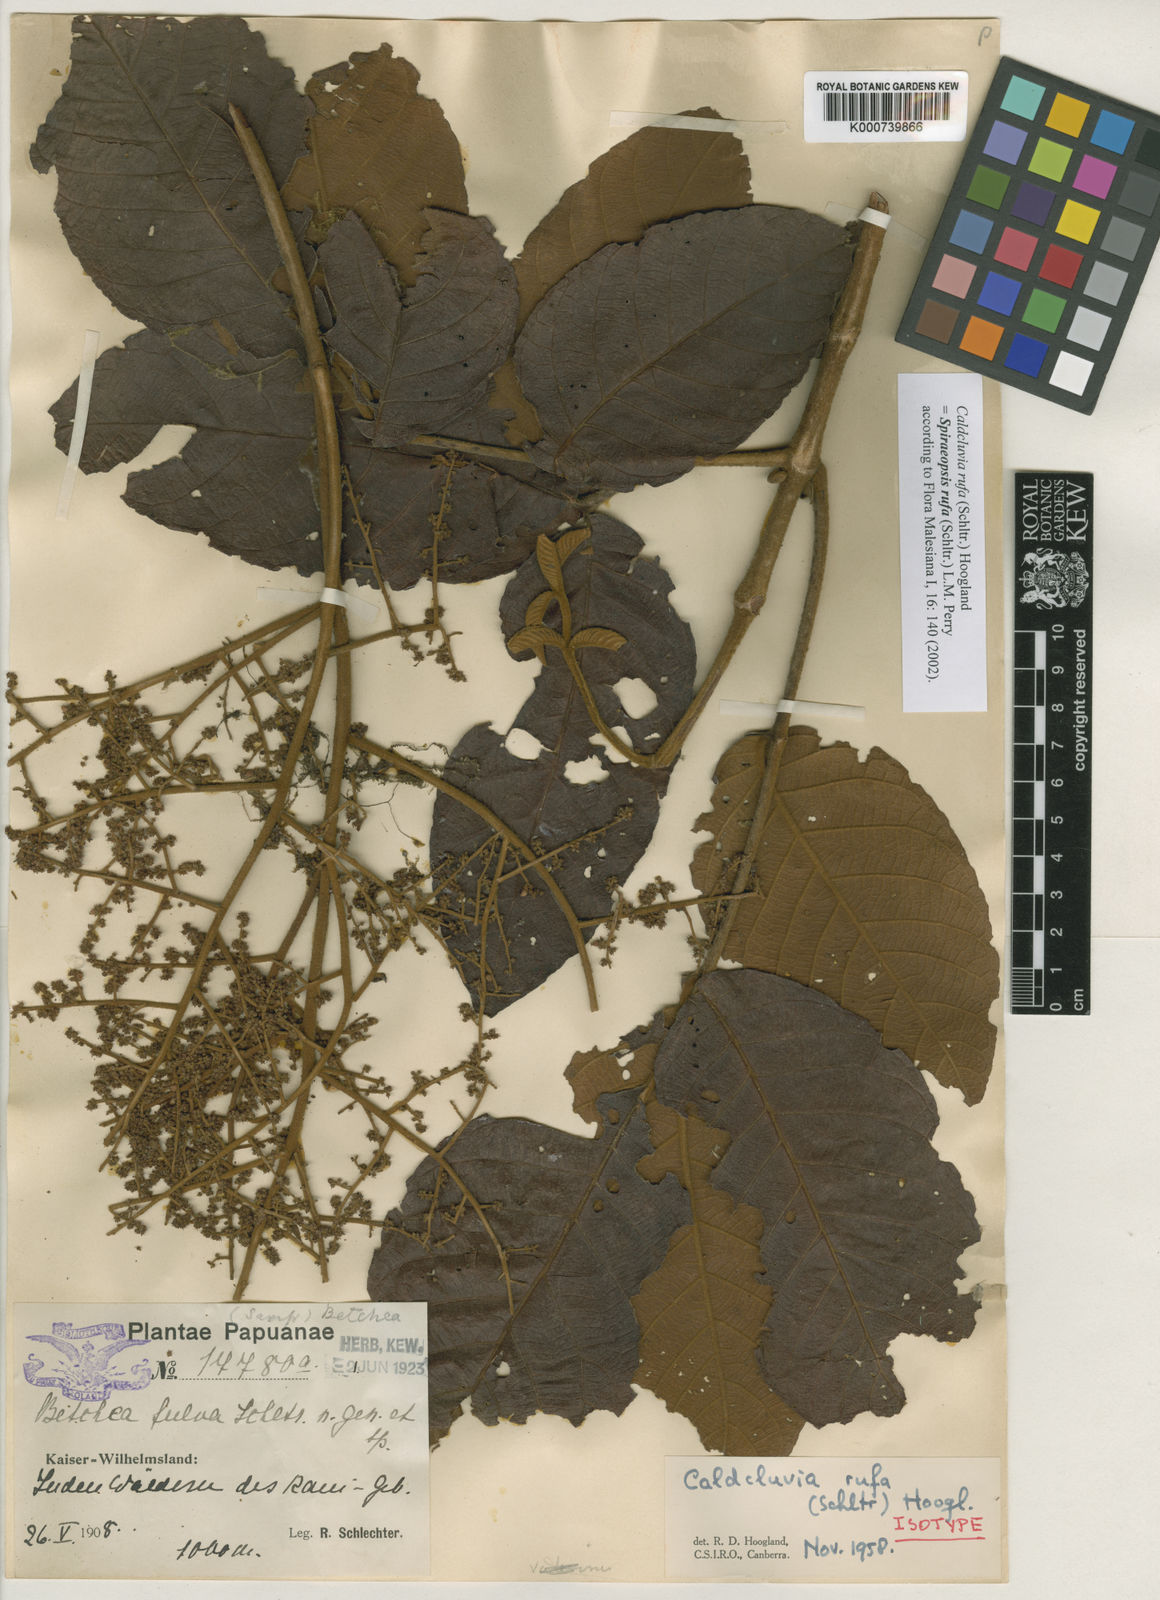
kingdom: Plantae
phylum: Tracheophyta
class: Magnoliopsida
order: Oxalidales
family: Cunoniaceae
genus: Ackama
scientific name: Ackama rufa
